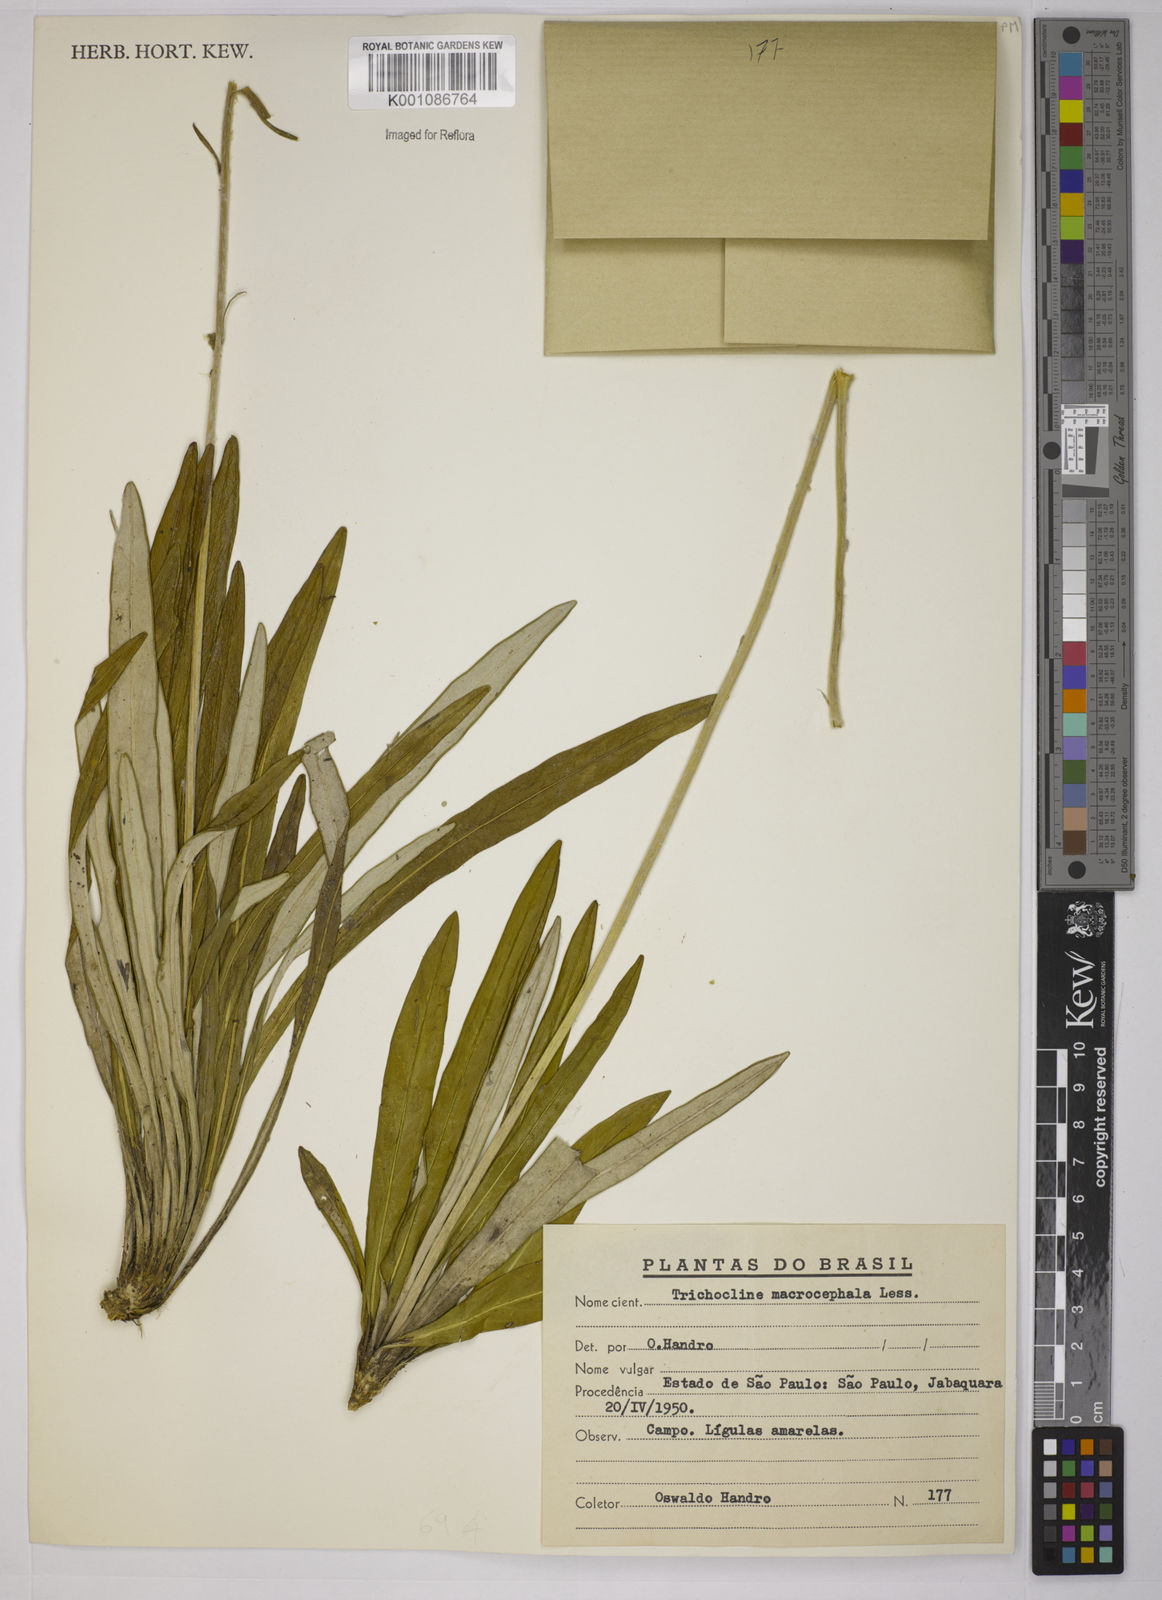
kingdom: Plantae
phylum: Tracheophyta
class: Magnoliopsida
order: Asterales
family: Asteraceae
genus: Trichocline
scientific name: Trichocline linearifolia
